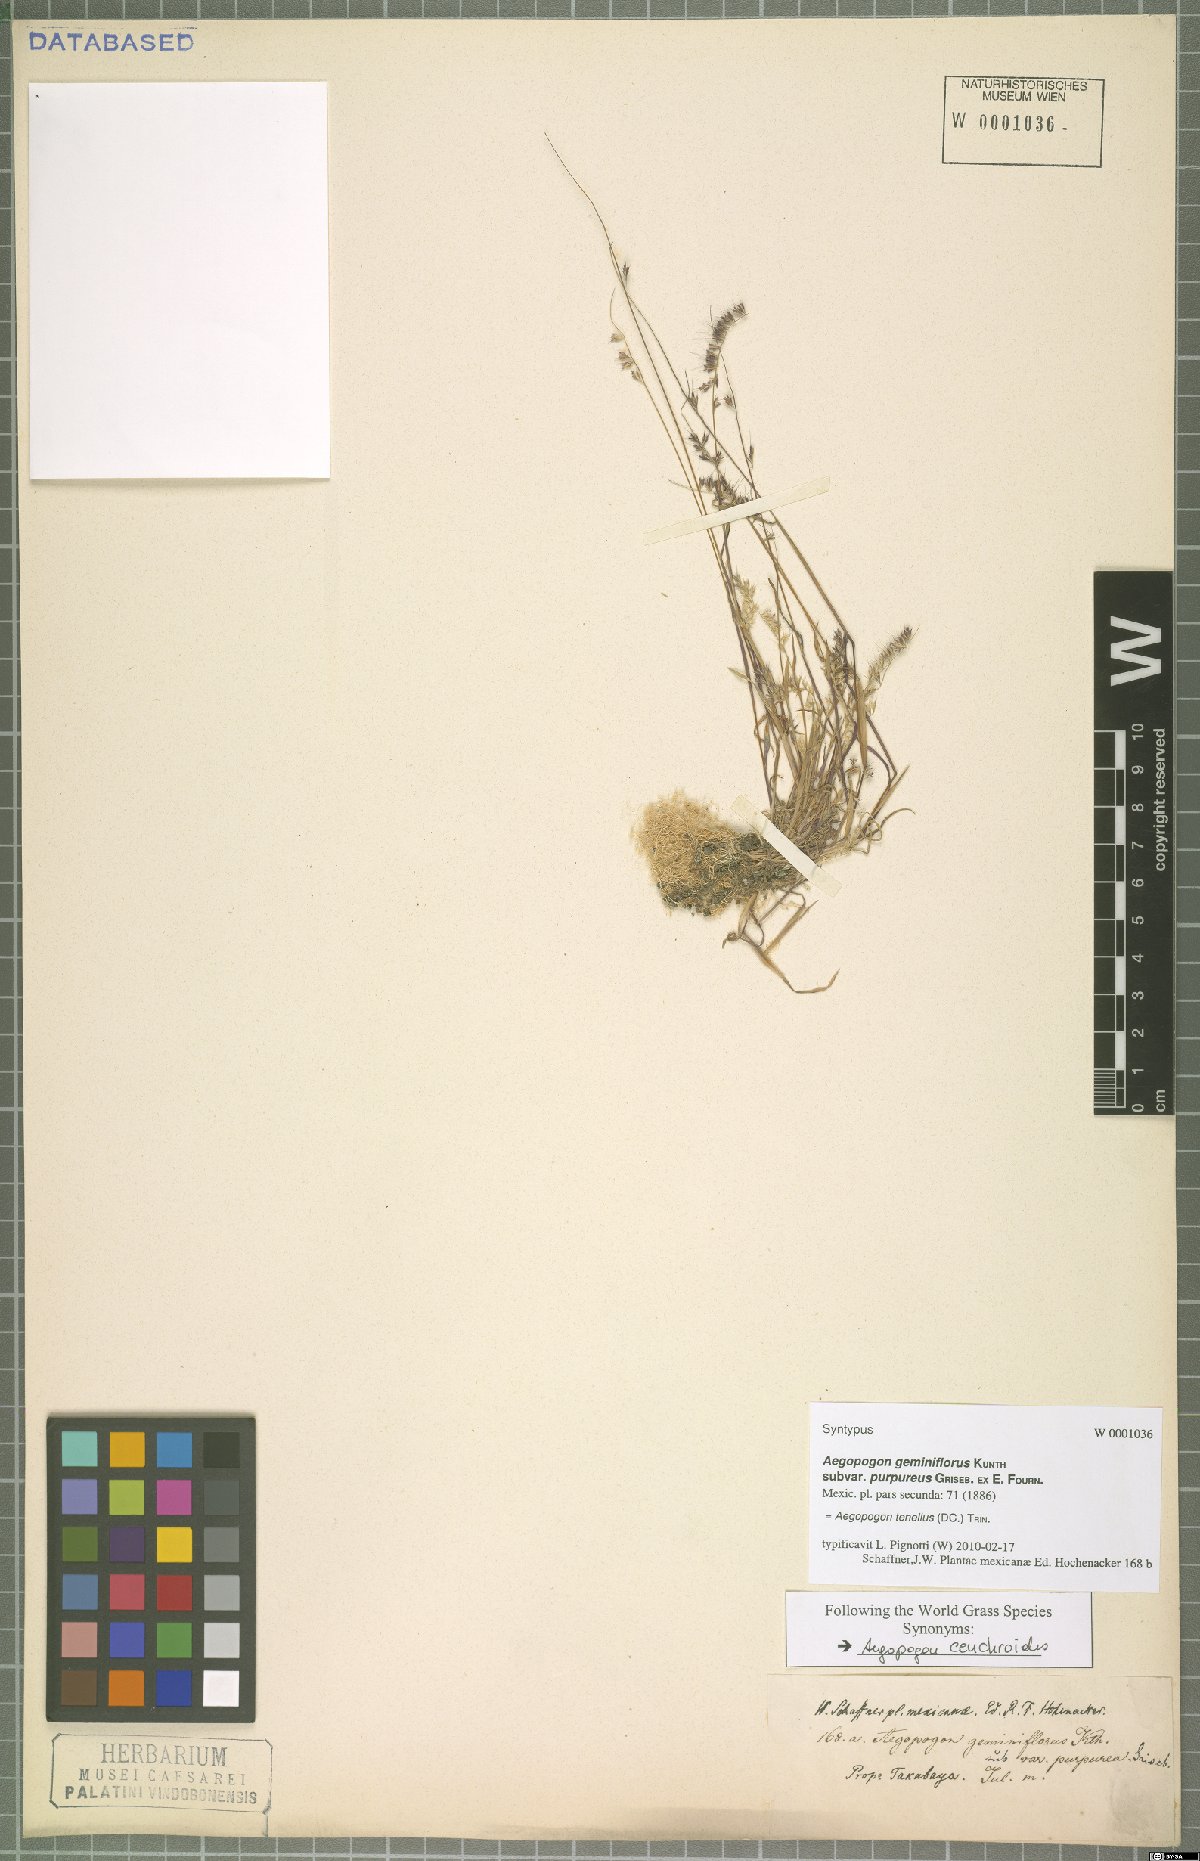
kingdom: Plantae
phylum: Tracheophyta
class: Liliopsida
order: Poales
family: Poaceae
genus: Muhlenbergia
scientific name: Muhlenbergia uniseta
